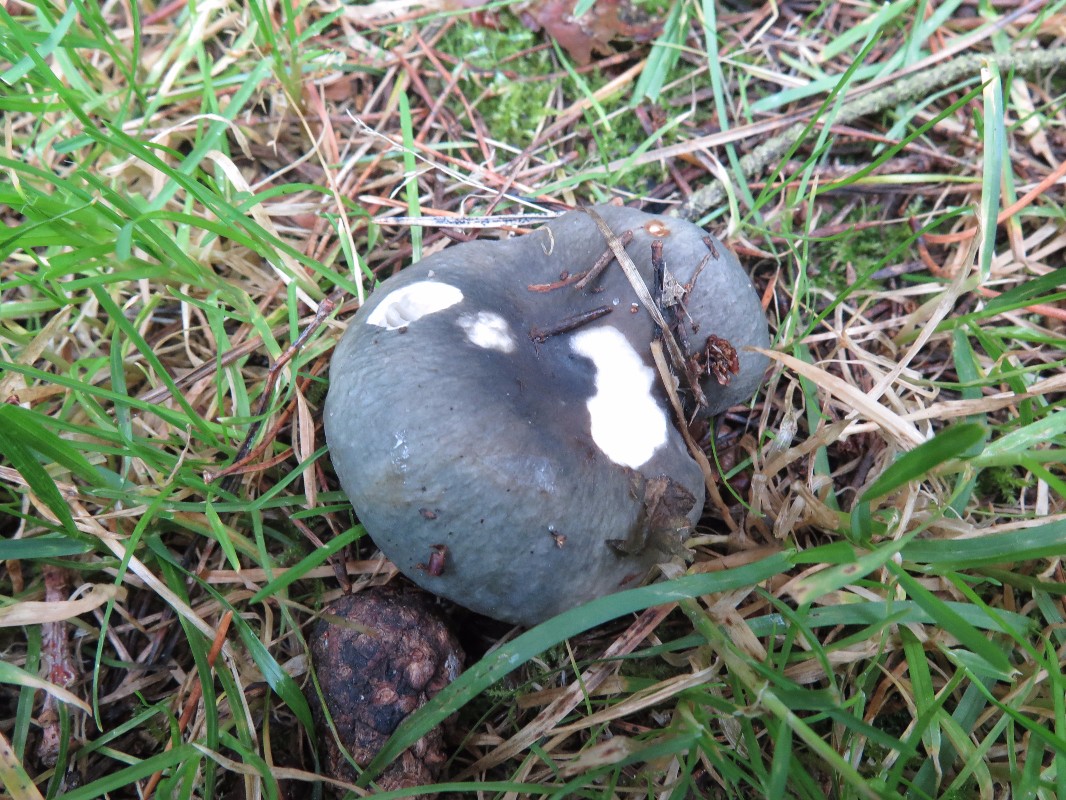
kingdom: Fungi
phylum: Basidiomycota
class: Agaricomycetes
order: Russulales
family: Russulaceae
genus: Russula
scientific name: Russula
